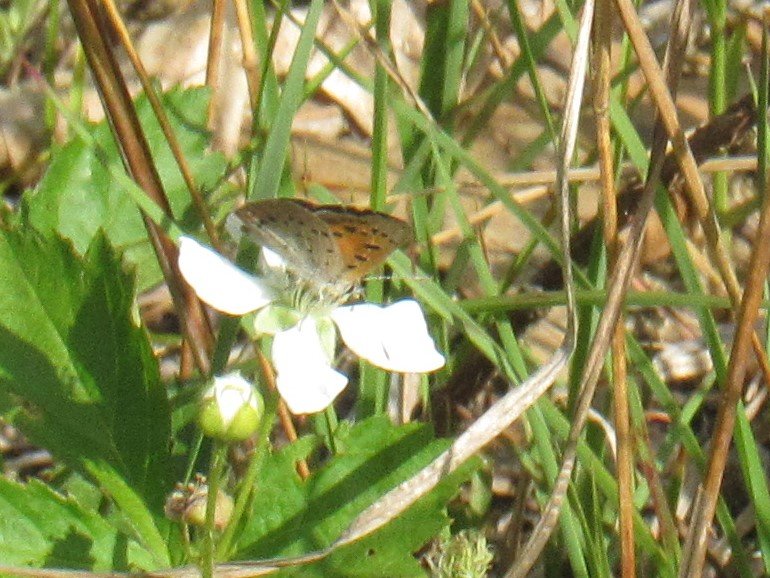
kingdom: Animalia
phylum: Arthropoda
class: Insecta
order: Lepidoptera
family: Lycaenidae
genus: Lycaena
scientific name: Lycaena phlaeas
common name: American Copper
